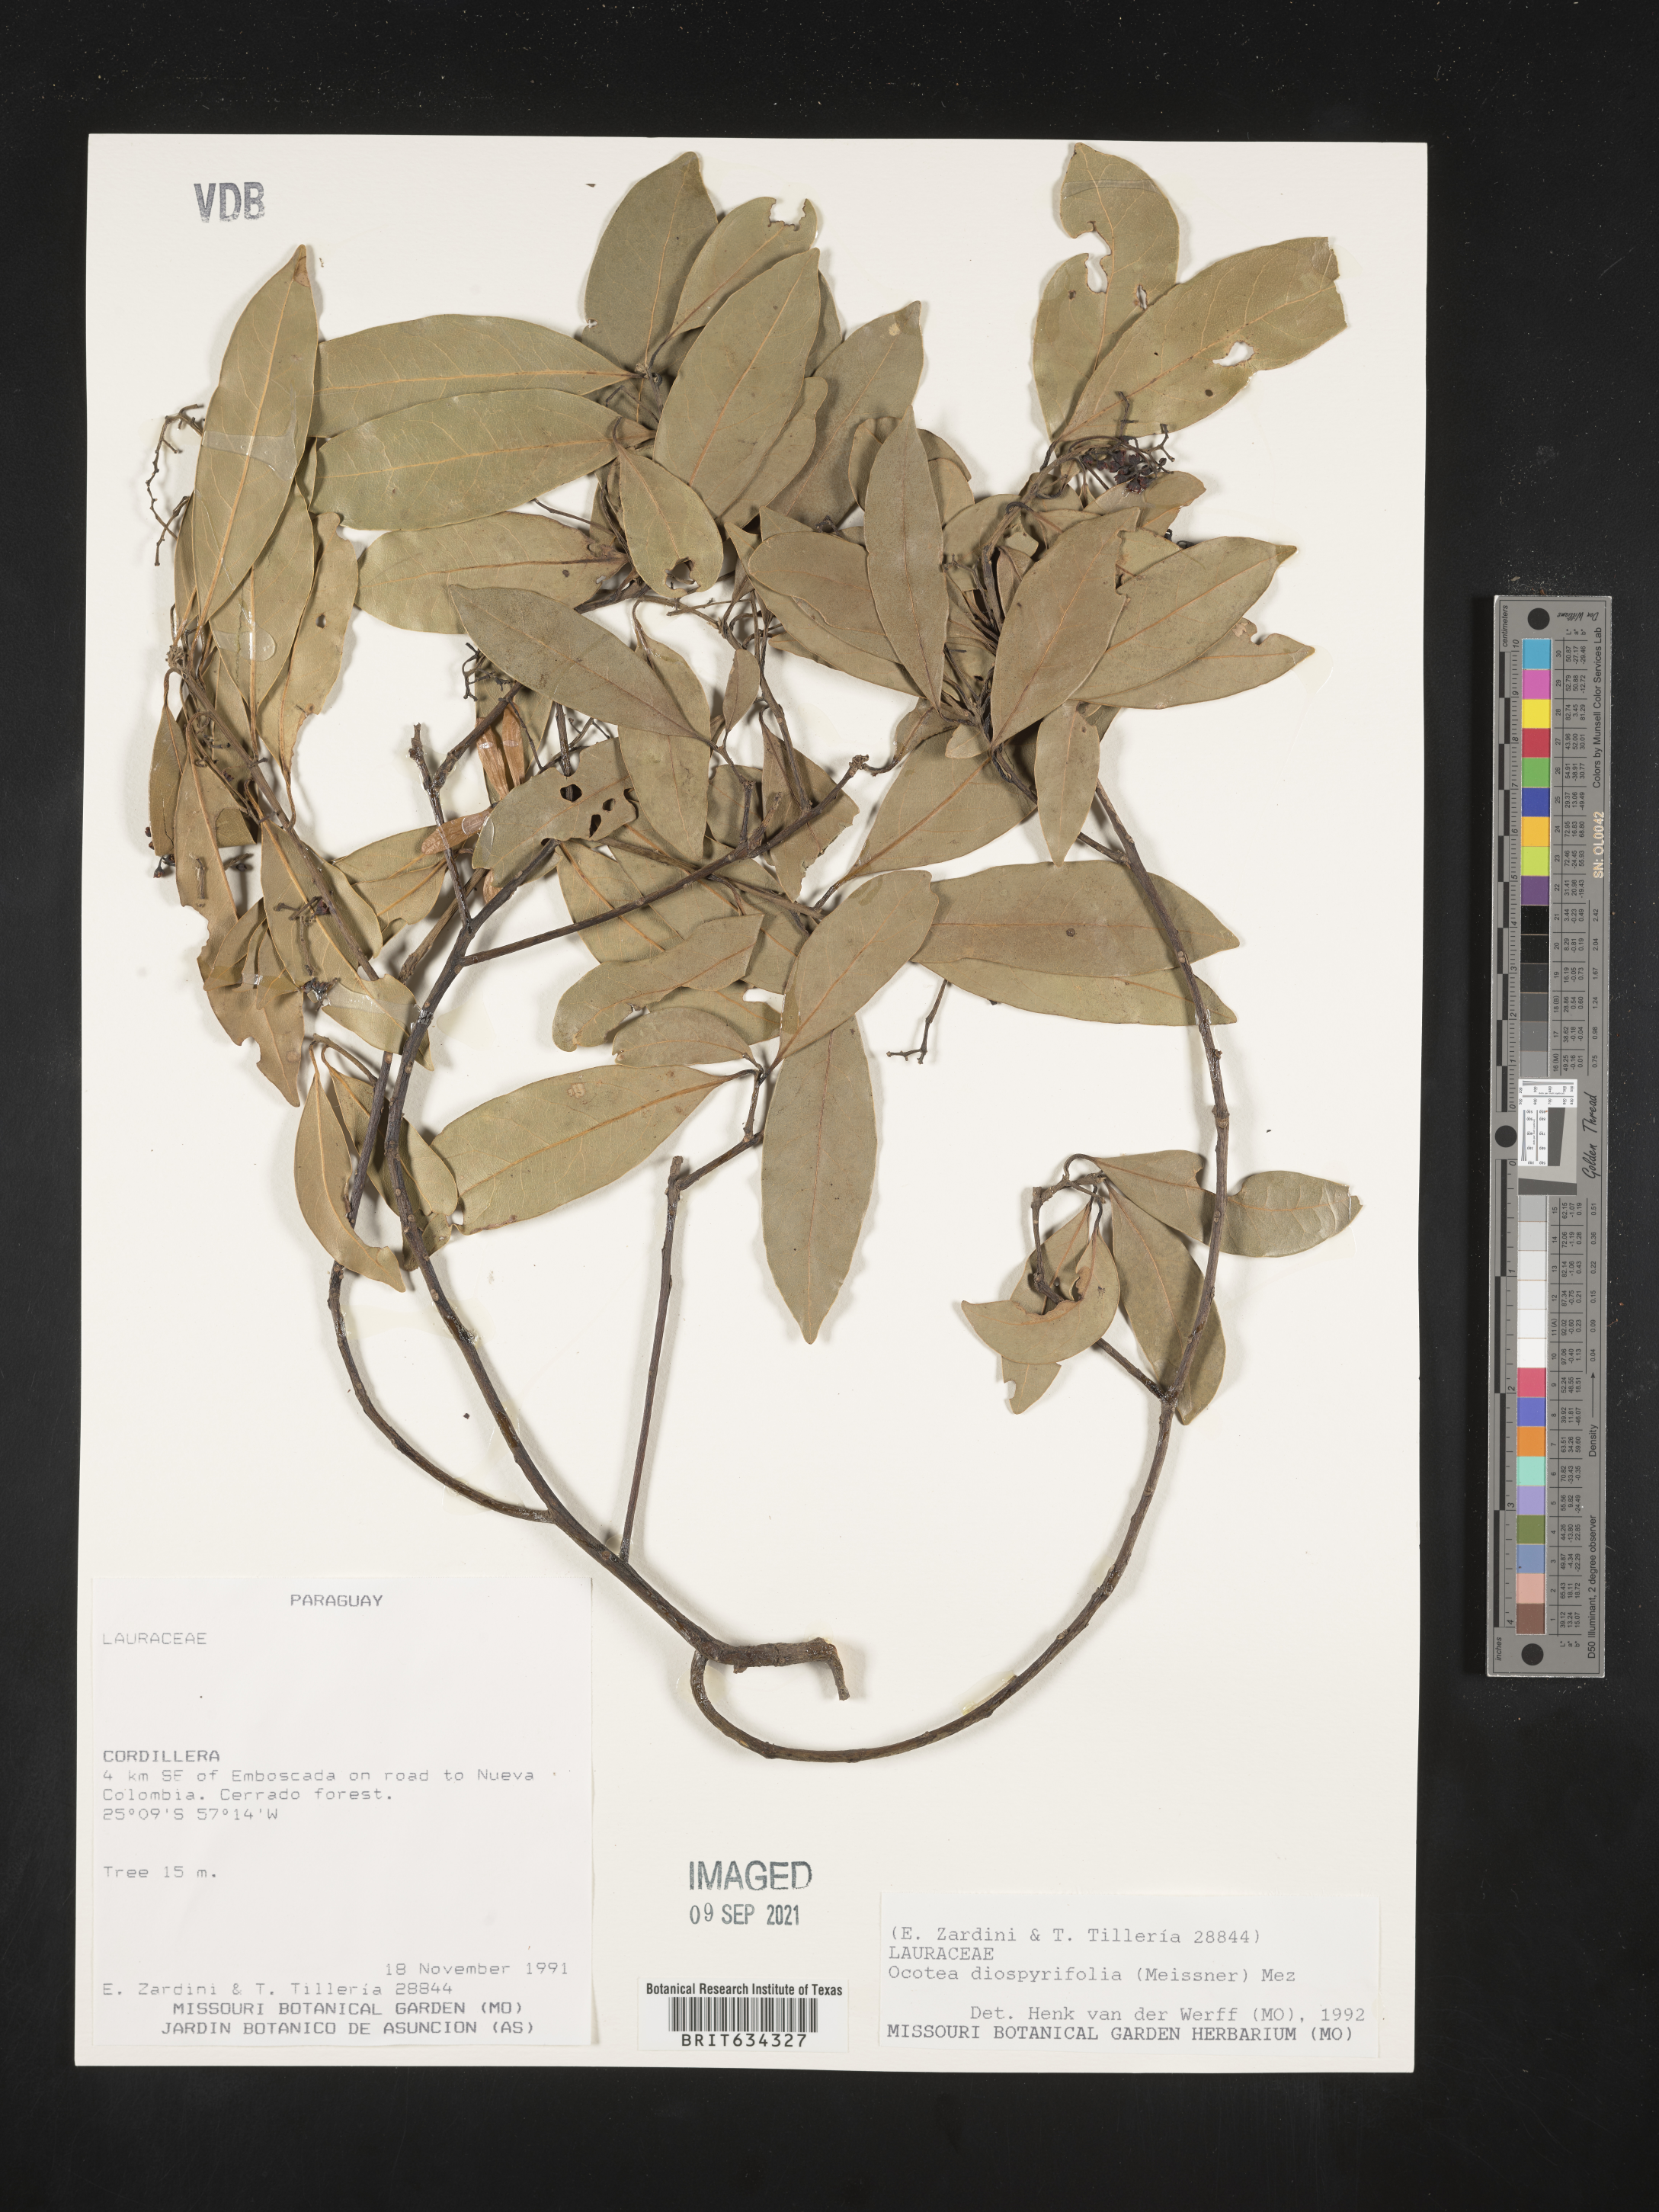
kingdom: Plantae
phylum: Tracheophyta
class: Magnoliopsida
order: Laurales
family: Lauraceae
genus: Ocotea
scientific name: Ocotea
